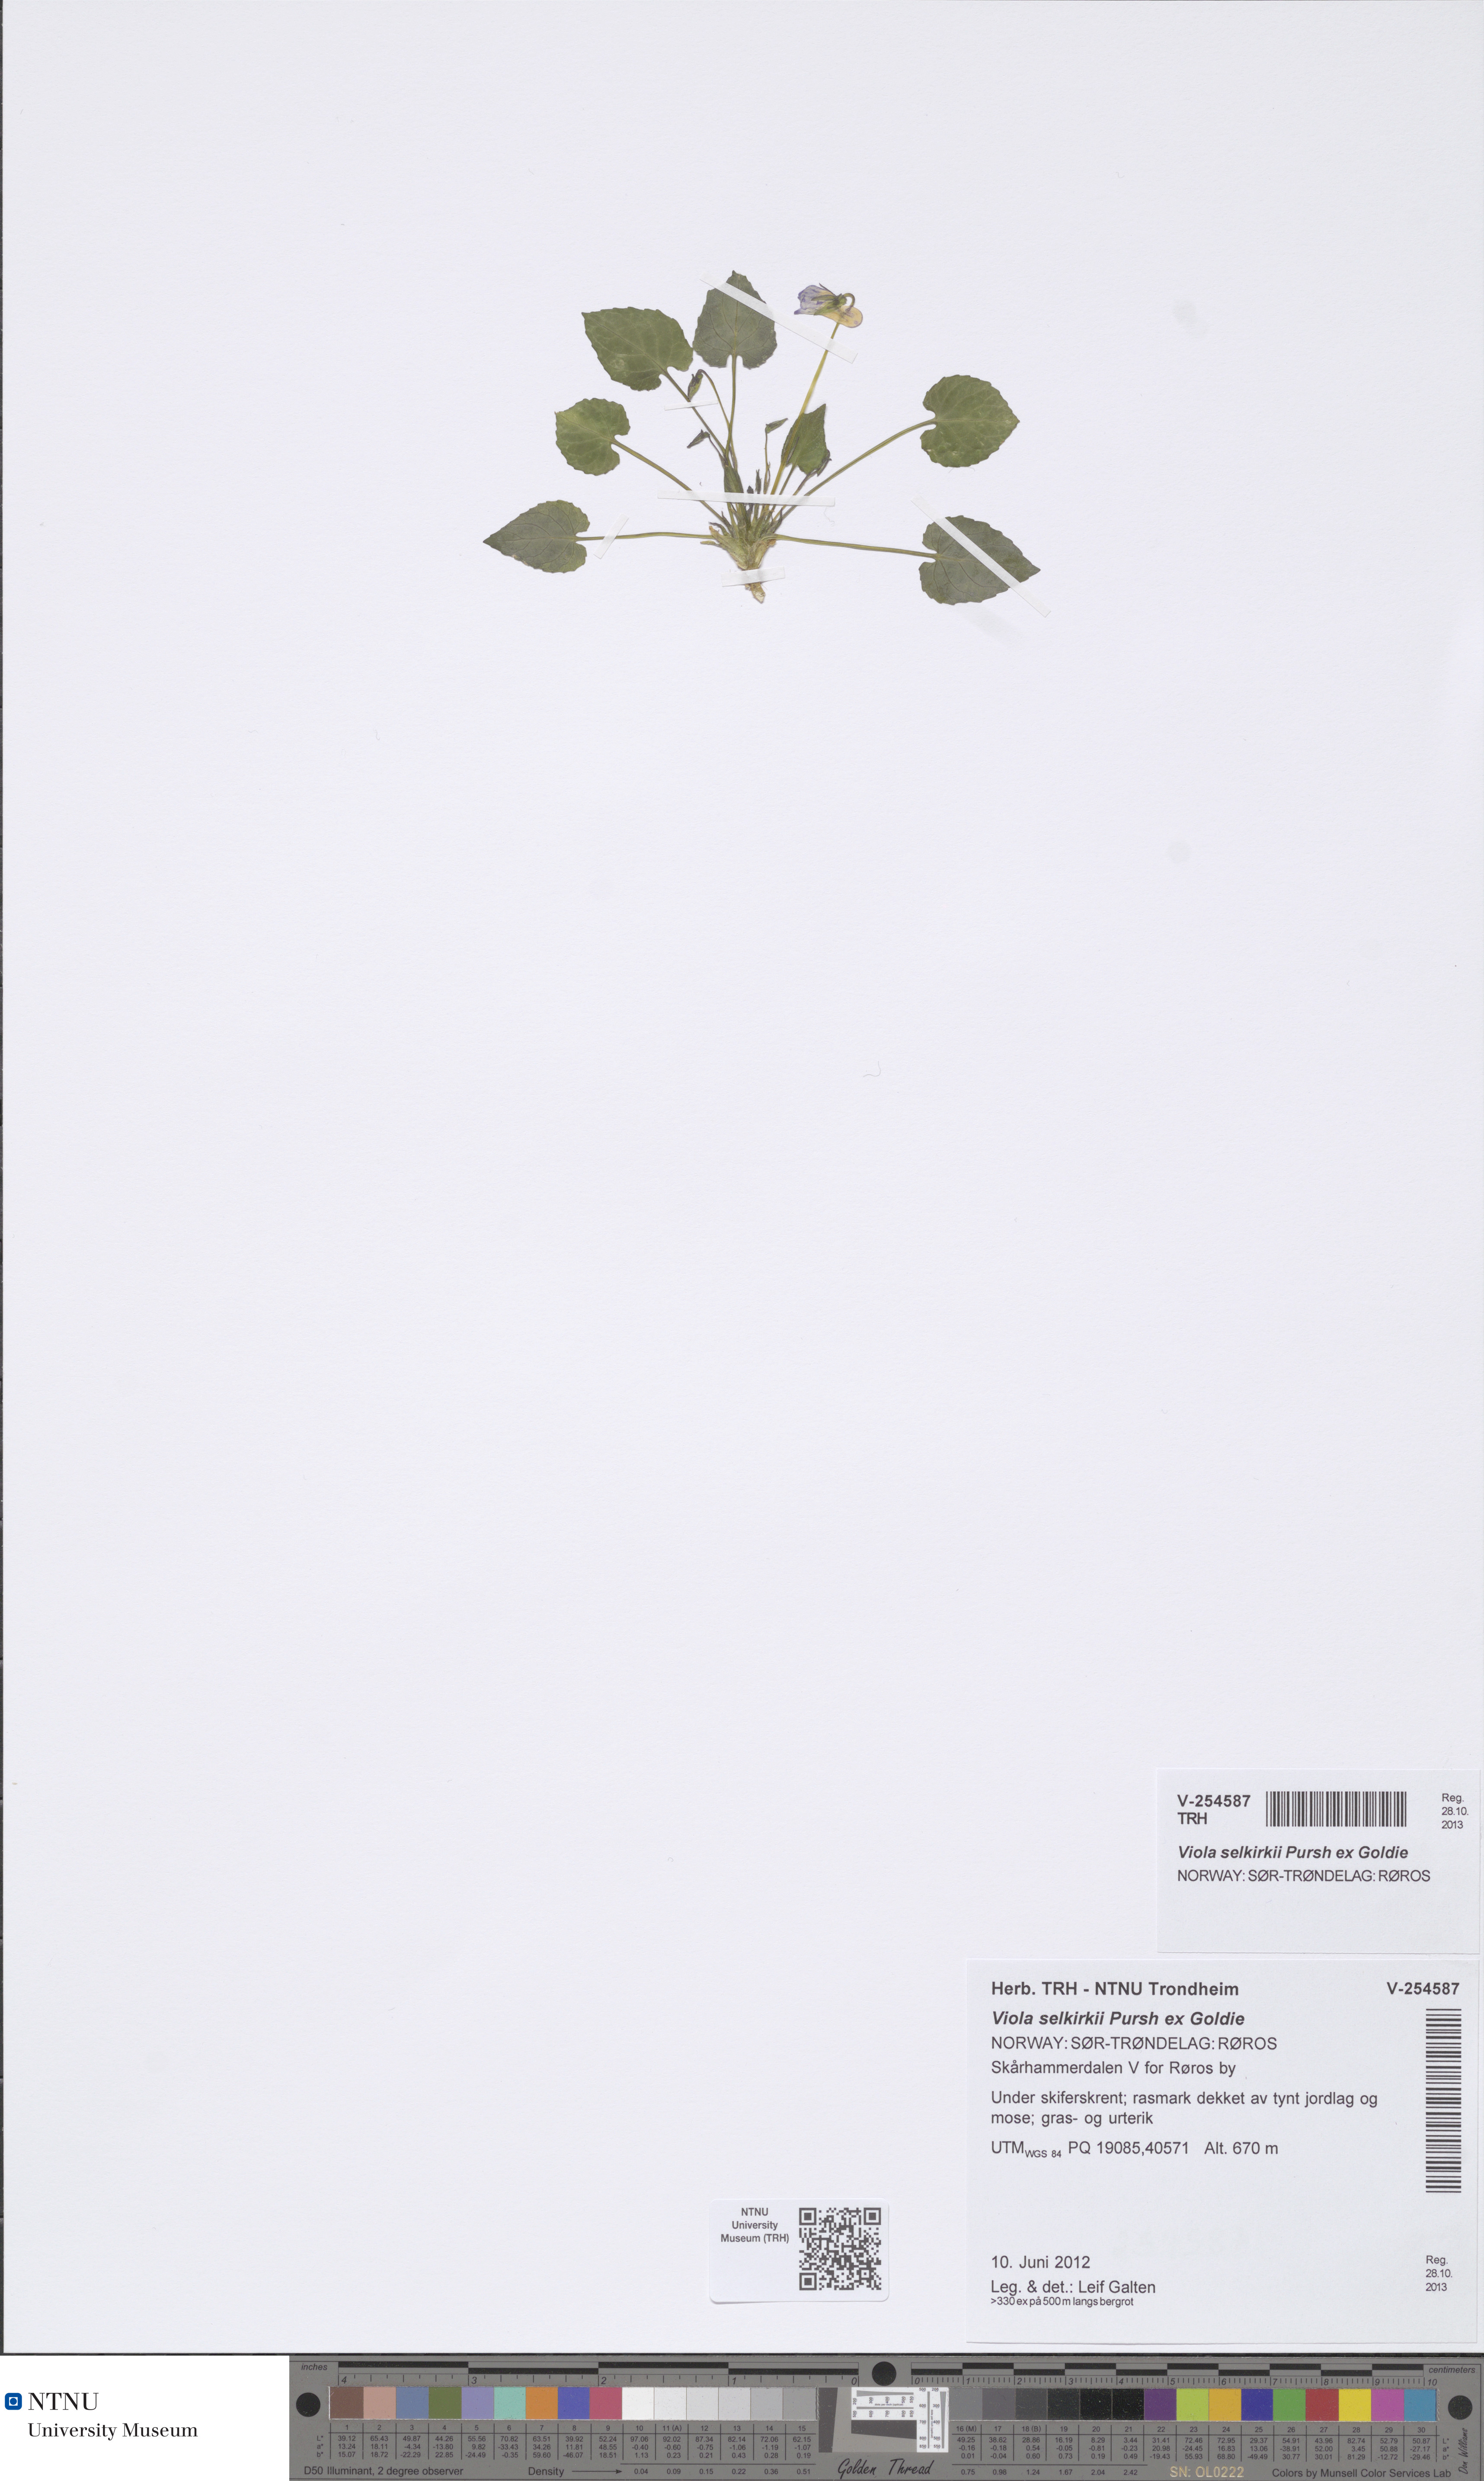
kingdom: Plantae
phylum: Tracheophyta
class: Magnoliopsida
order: Malpighiales
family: Violaceae
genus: Viola
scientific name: Viola selkirkii
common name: Selkirk's violet
